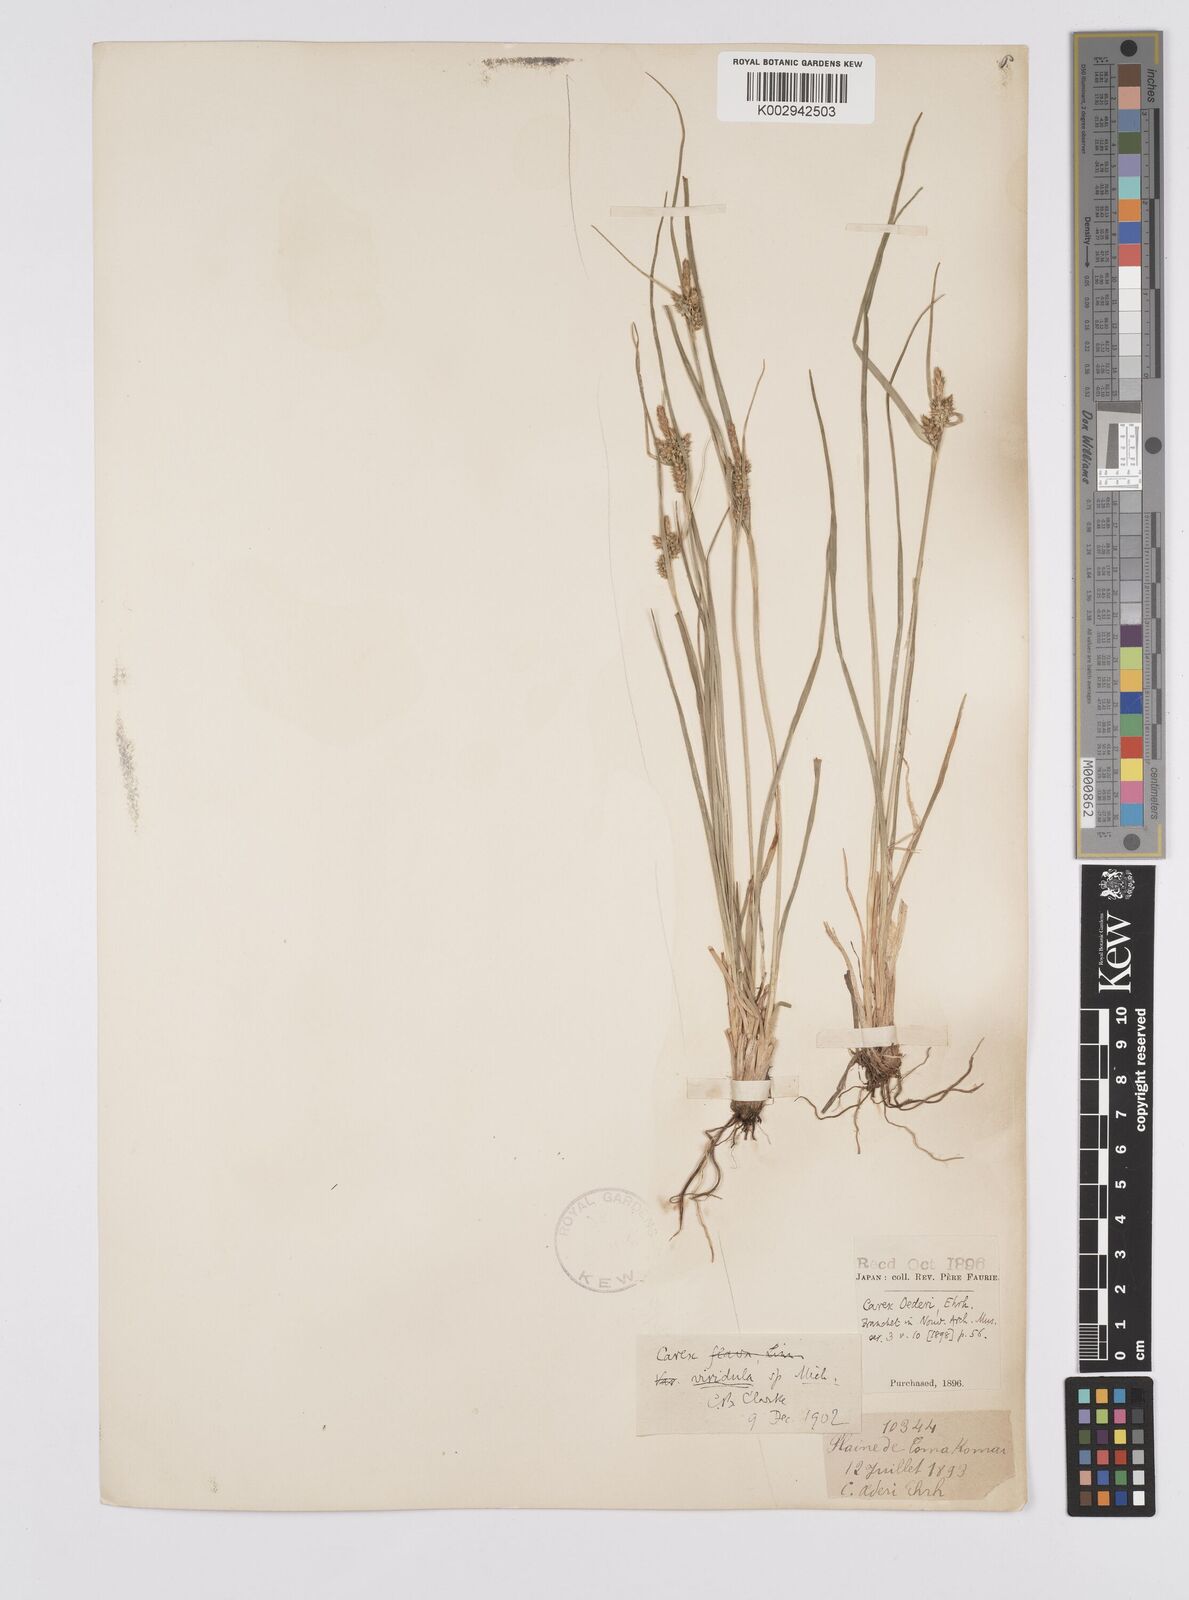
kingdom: Plantae
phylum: Tracheophyta
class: Liliopsida
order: Poales
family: Cyperaceae
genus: Carex
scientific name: Carex oederi
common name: Common & small-fruited yellow-sedge
